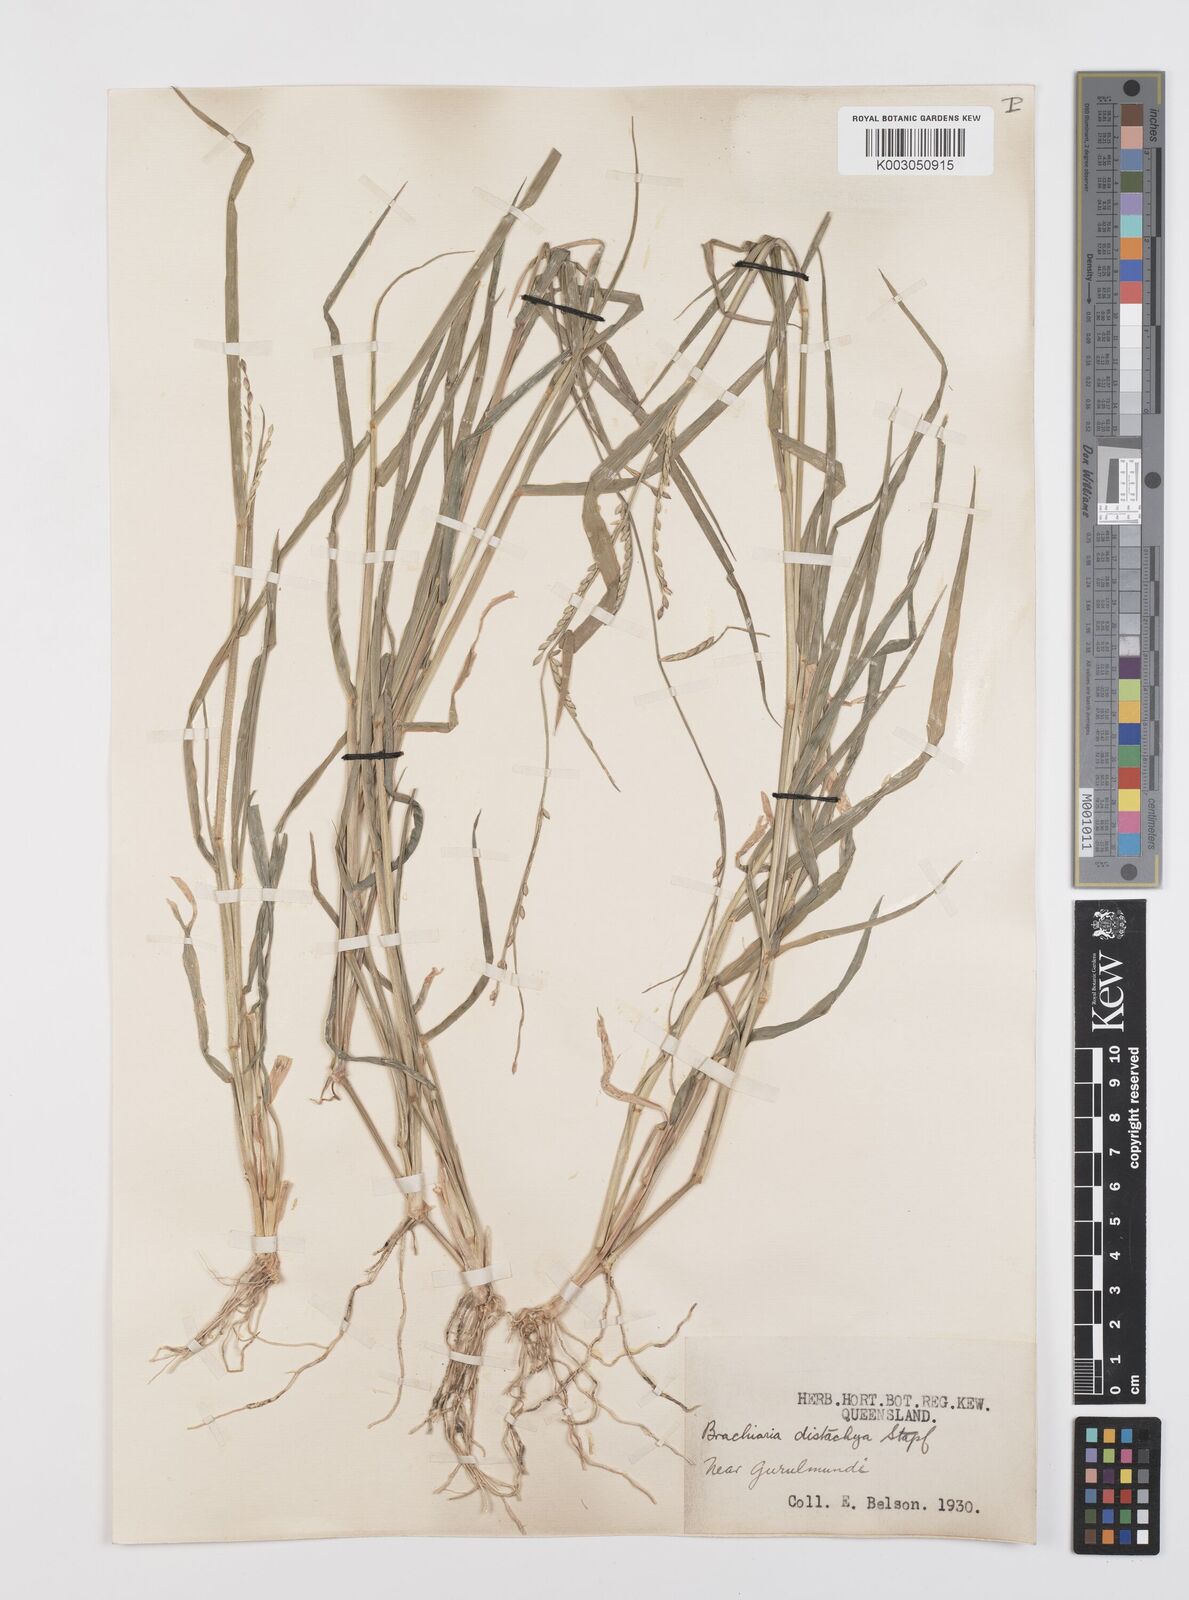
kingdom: Plantae
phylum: Tracheophyta
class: Liliopsida
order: Poales
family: Poaceae
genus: Urochloa
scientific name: Urochloa subquadripara
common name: Armgrass millet
